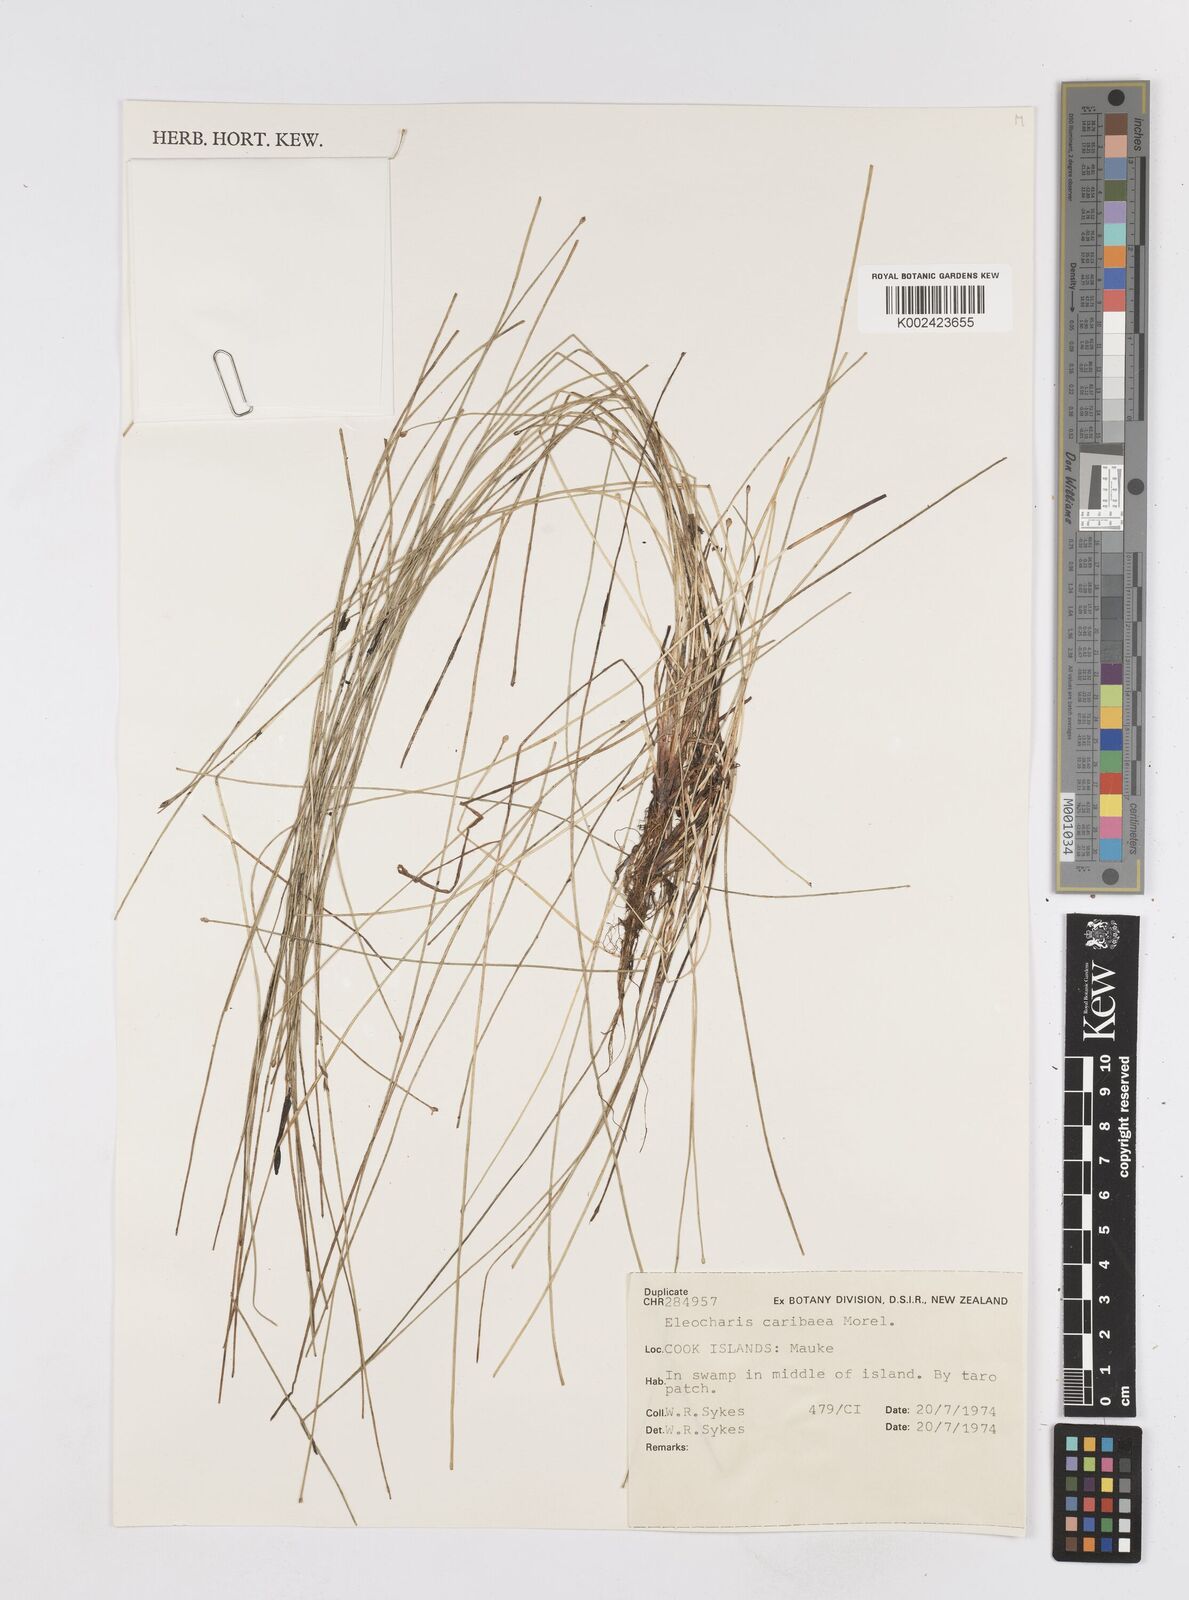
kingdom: Plantae
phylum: Tracheophyta
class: Liliopsida
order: Poales
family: Cyperaceae
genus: Eleocharis
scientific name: Eleocharis geniculata
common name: Canada spikesedge
